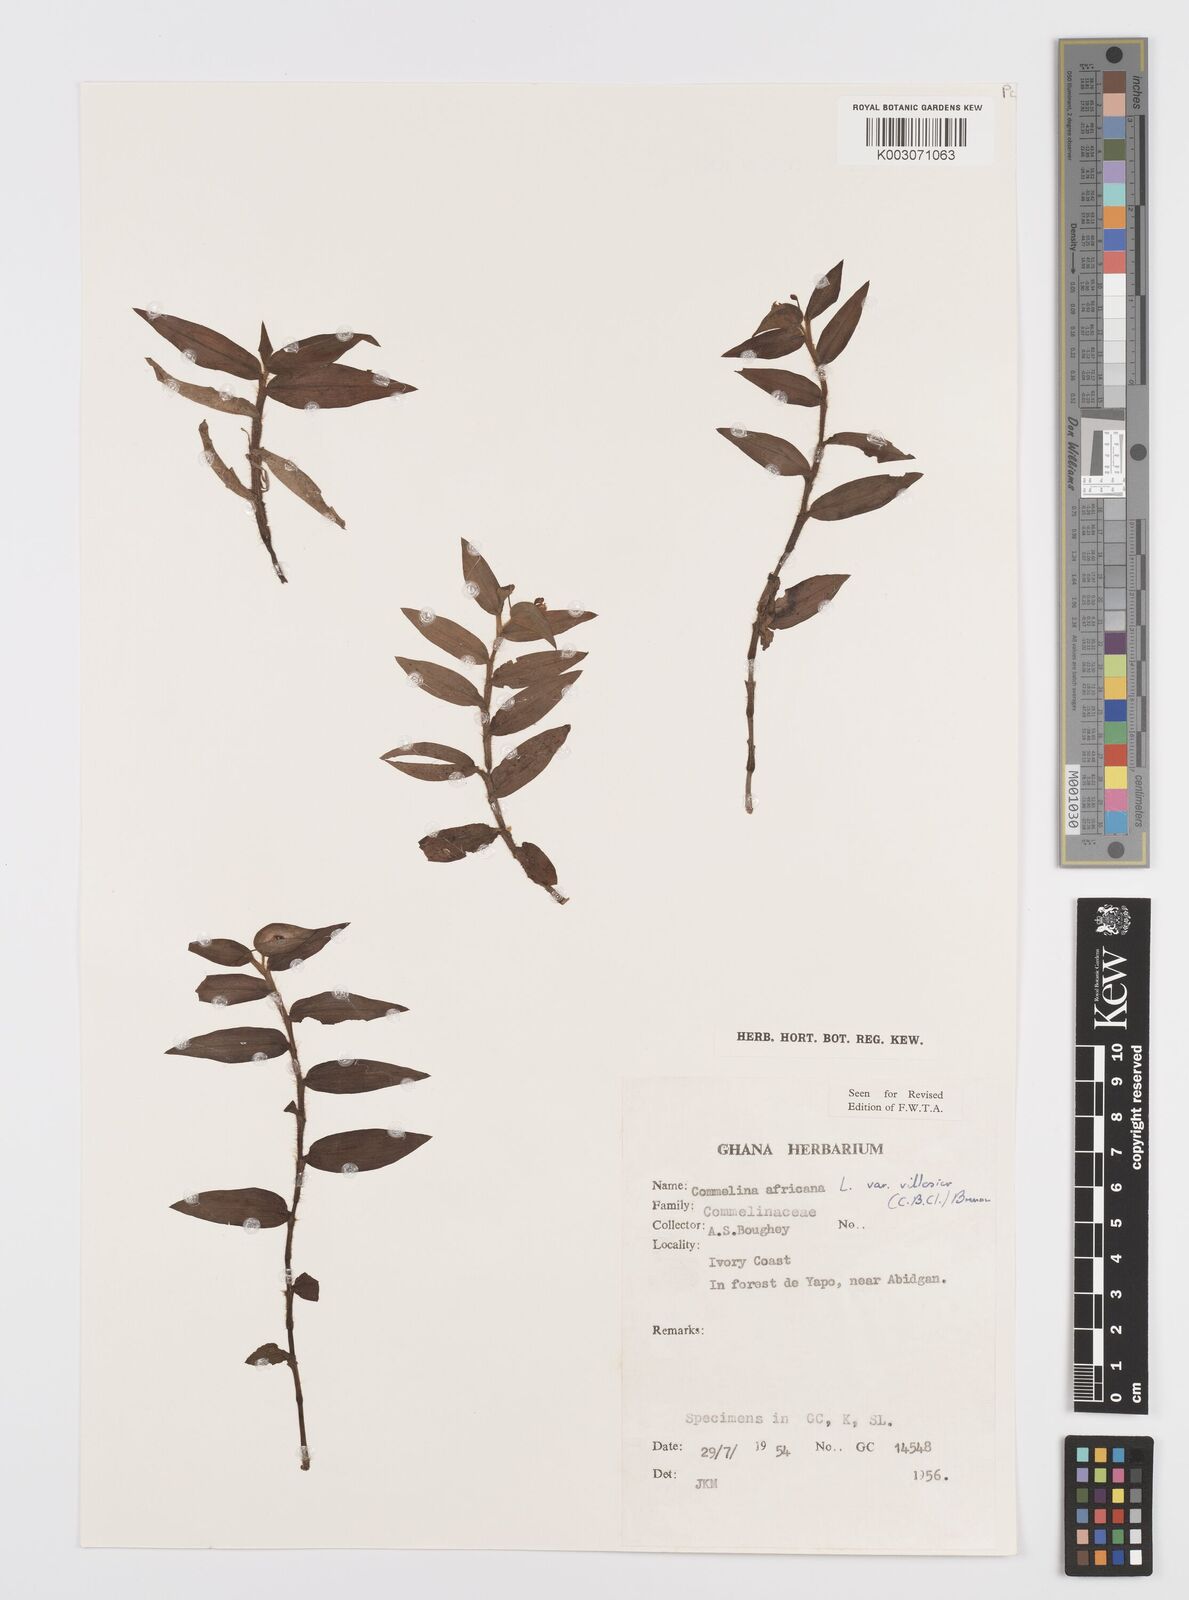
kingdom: Plantae
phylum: Tracheophyta
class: Liliopsida
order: Commelinales
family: Commelinaceae
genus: Commelina
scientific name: Commelina africana
